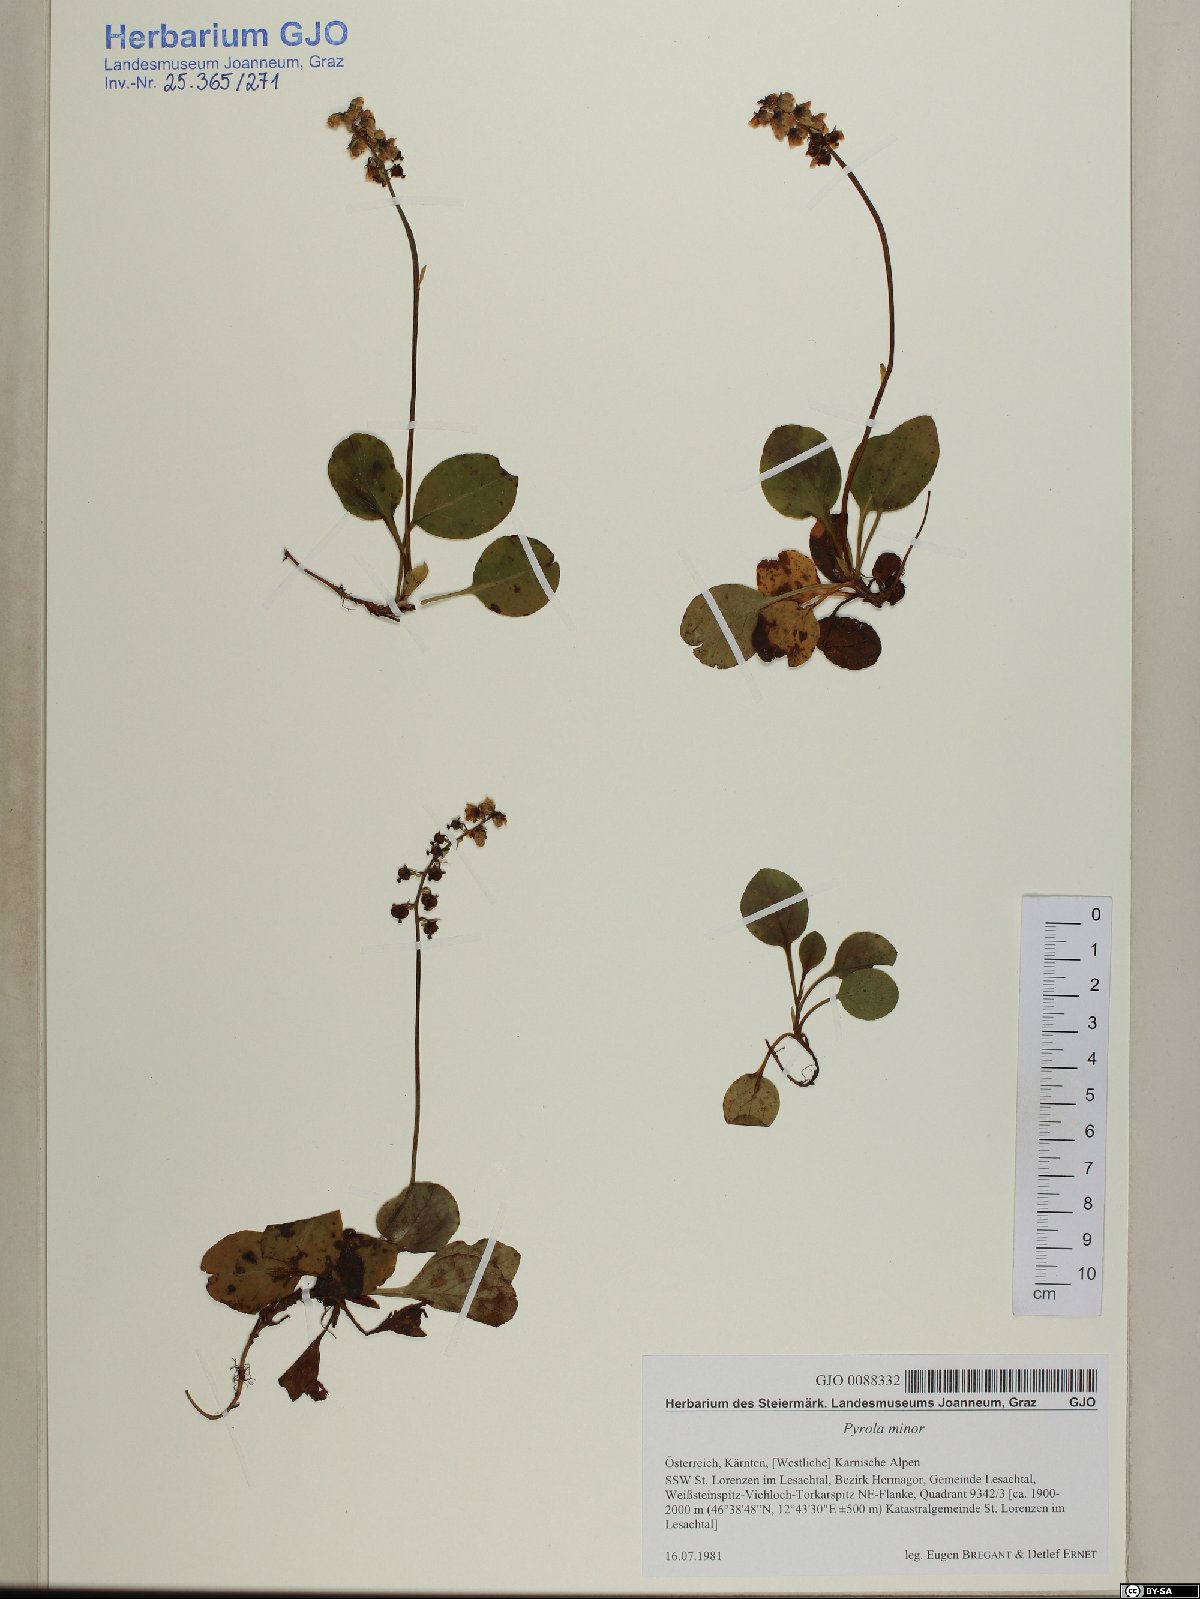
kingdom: Plantae
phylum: Tracheophyta
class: Magnoliopsida
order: Ericales
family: Ericaceae
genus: Pyrola
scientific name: Pyrola minor
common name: Common wintergreen
